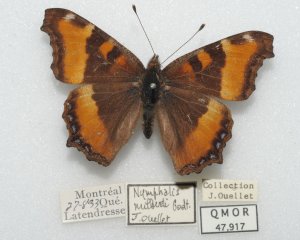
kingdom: Animalia
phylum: Arthropoda
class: Insecta
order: Lepidoptera
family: Nymphalidae
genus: Aglais
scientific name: Aglais milberti
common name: Milbert's Tortoiseshell
